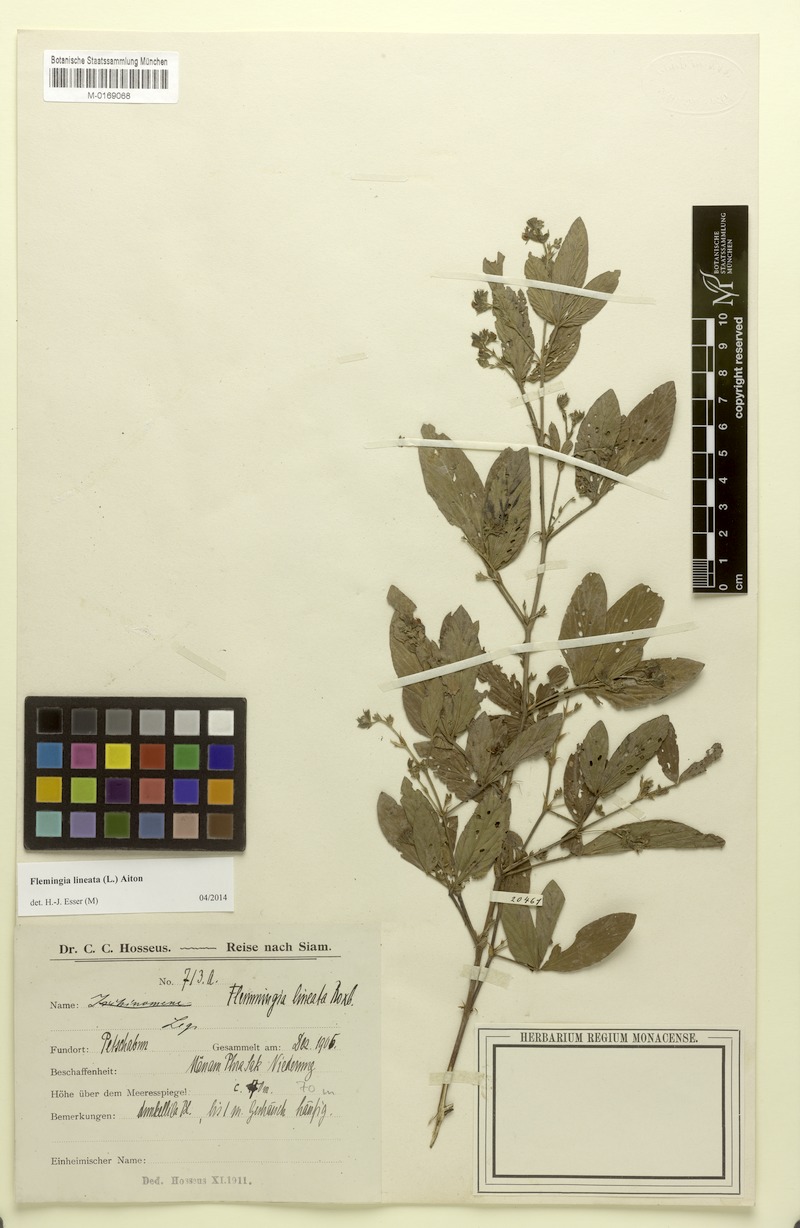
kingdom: Plantae
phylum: Tracheophyta
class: Magnoliopsida
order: Fabales
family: Fabaceae
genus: Flemingia
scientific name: Flemingia lineata
